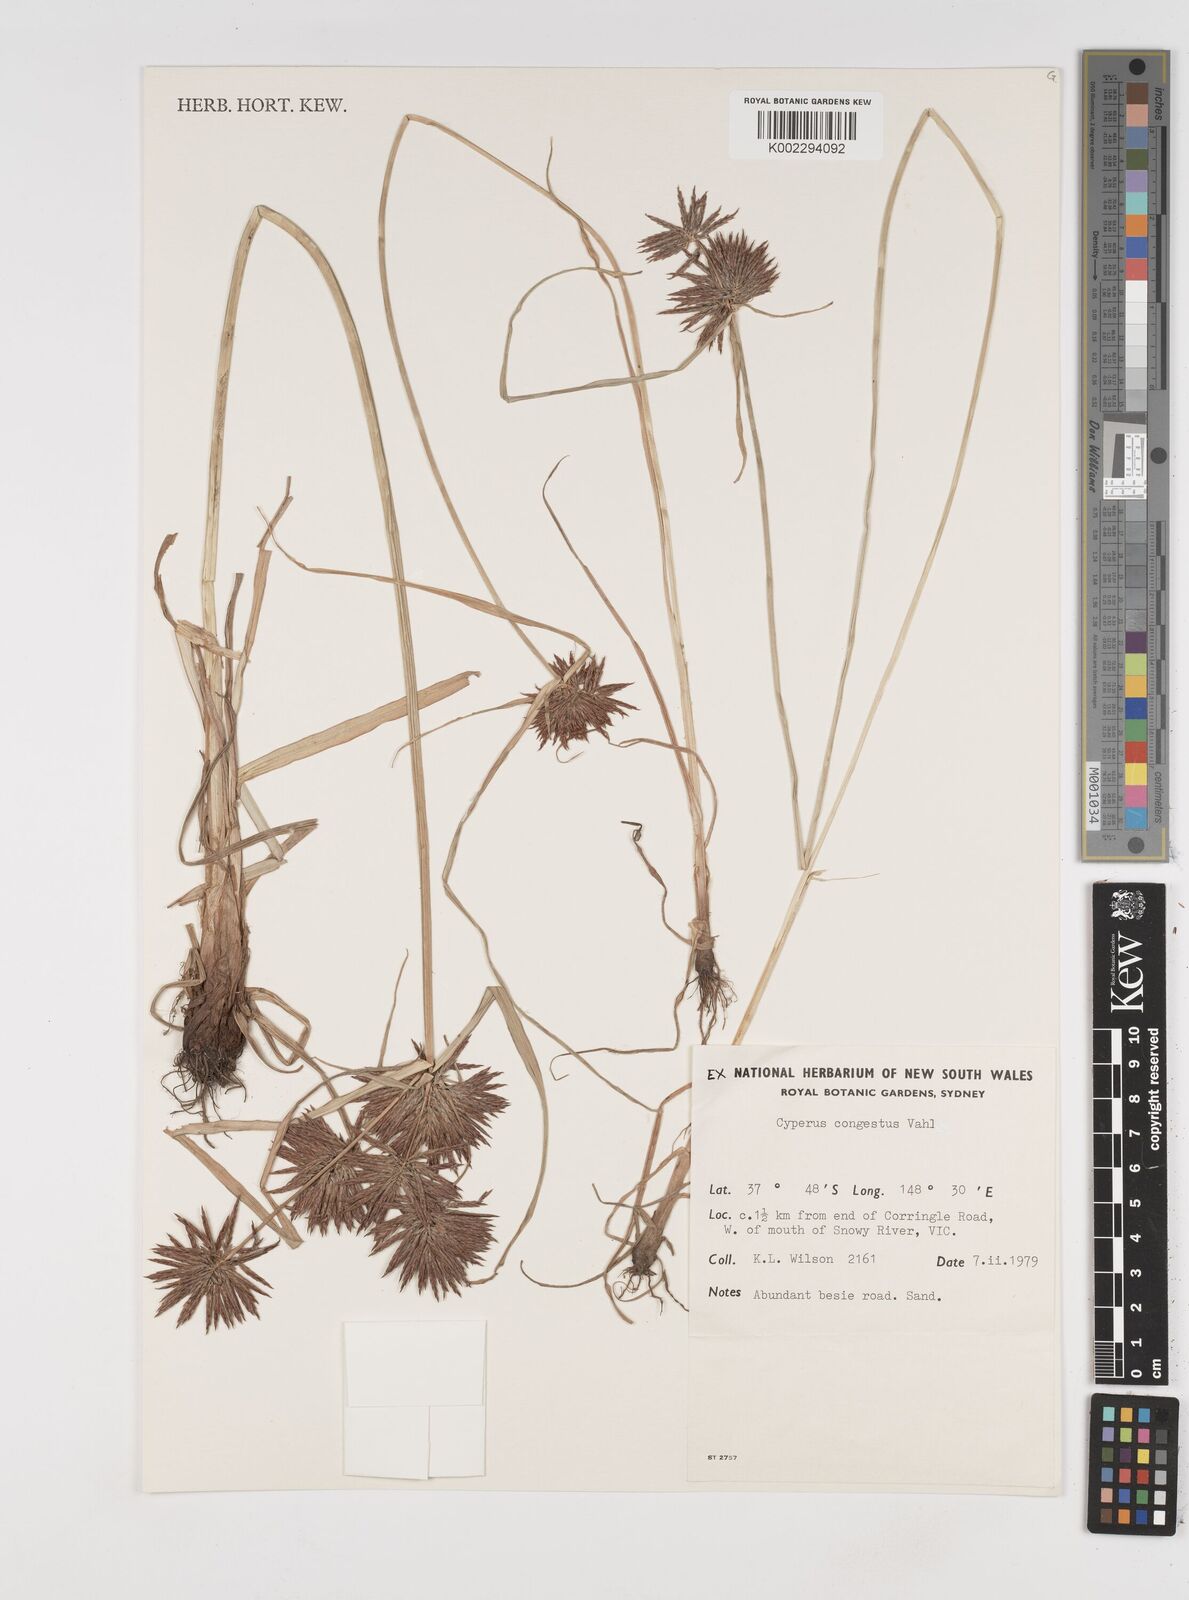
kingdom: Plantae
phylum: Tracheophyta
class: Liliopsida
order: Poales
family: Cyperaceae
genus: Cyperus
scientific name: Cyperus congestus
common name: Dense flat sedge
